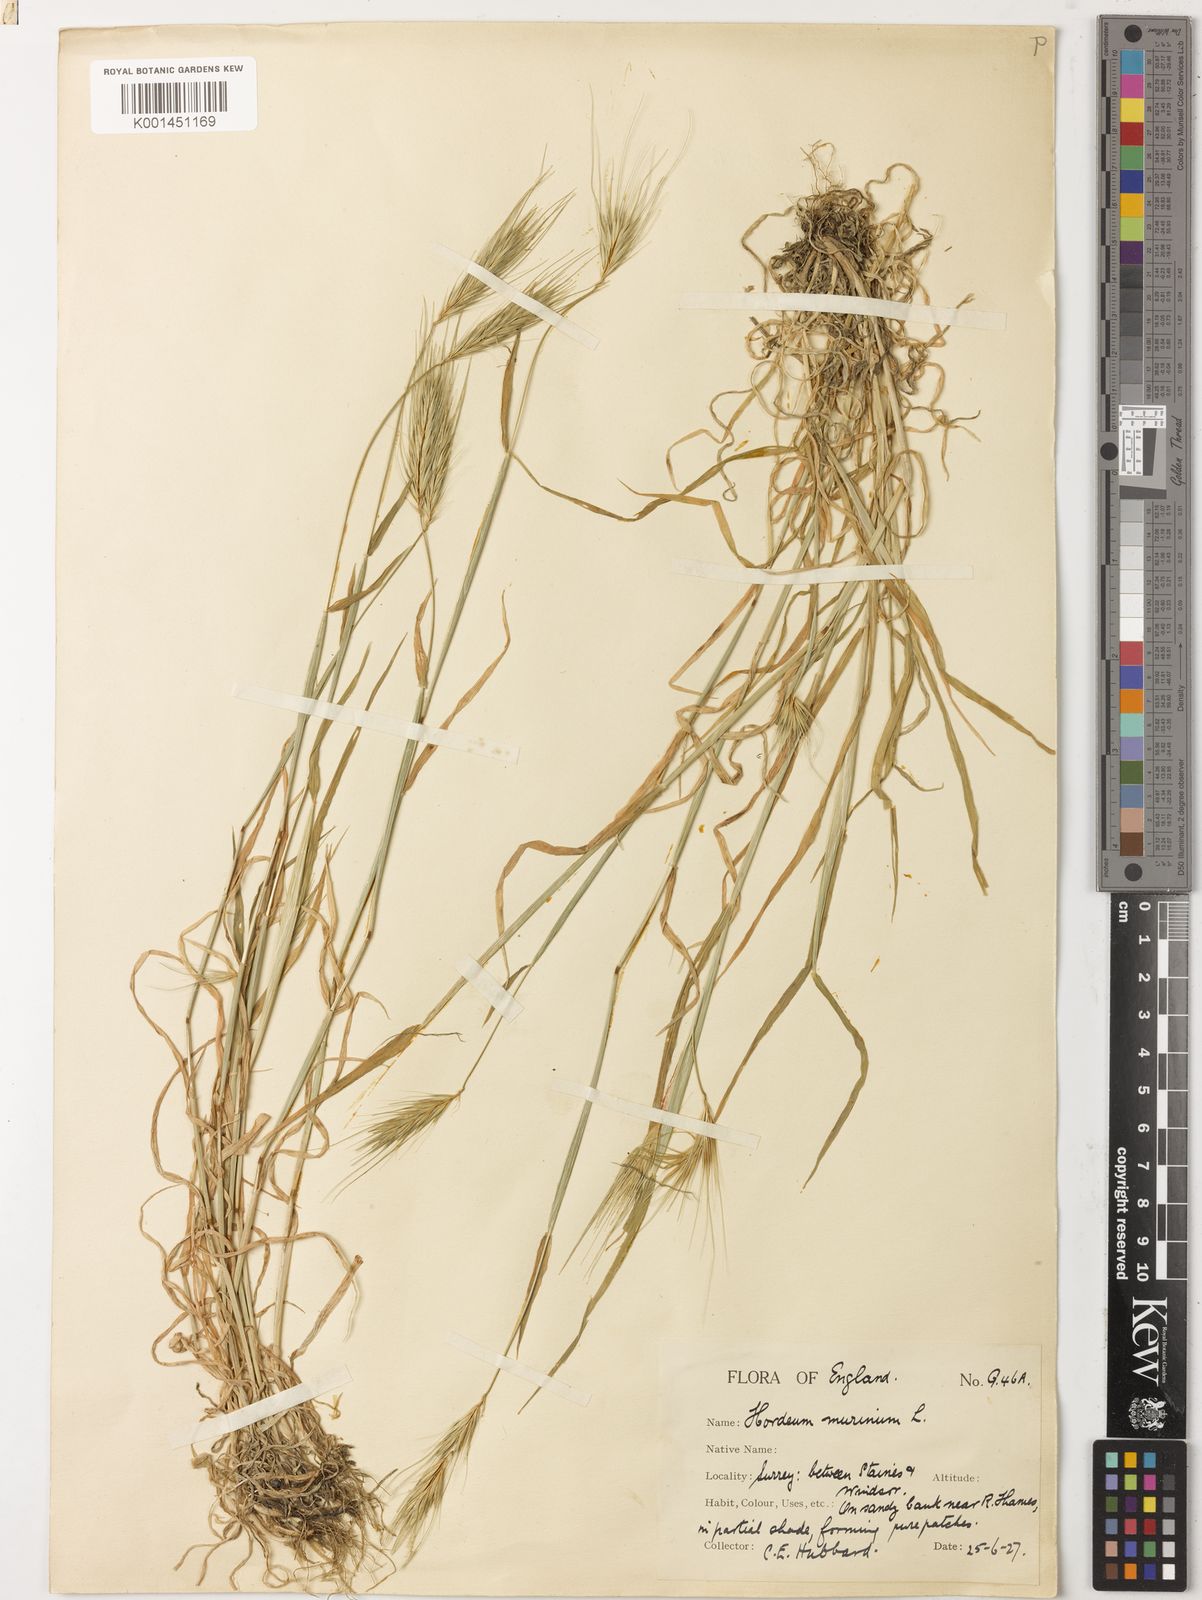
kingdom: Plantae
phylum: Tracheophyta
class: Liliopsida
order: Poales
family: Poaceae
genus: Hordeum
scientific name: Hordeum murinum
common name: Wall barley
